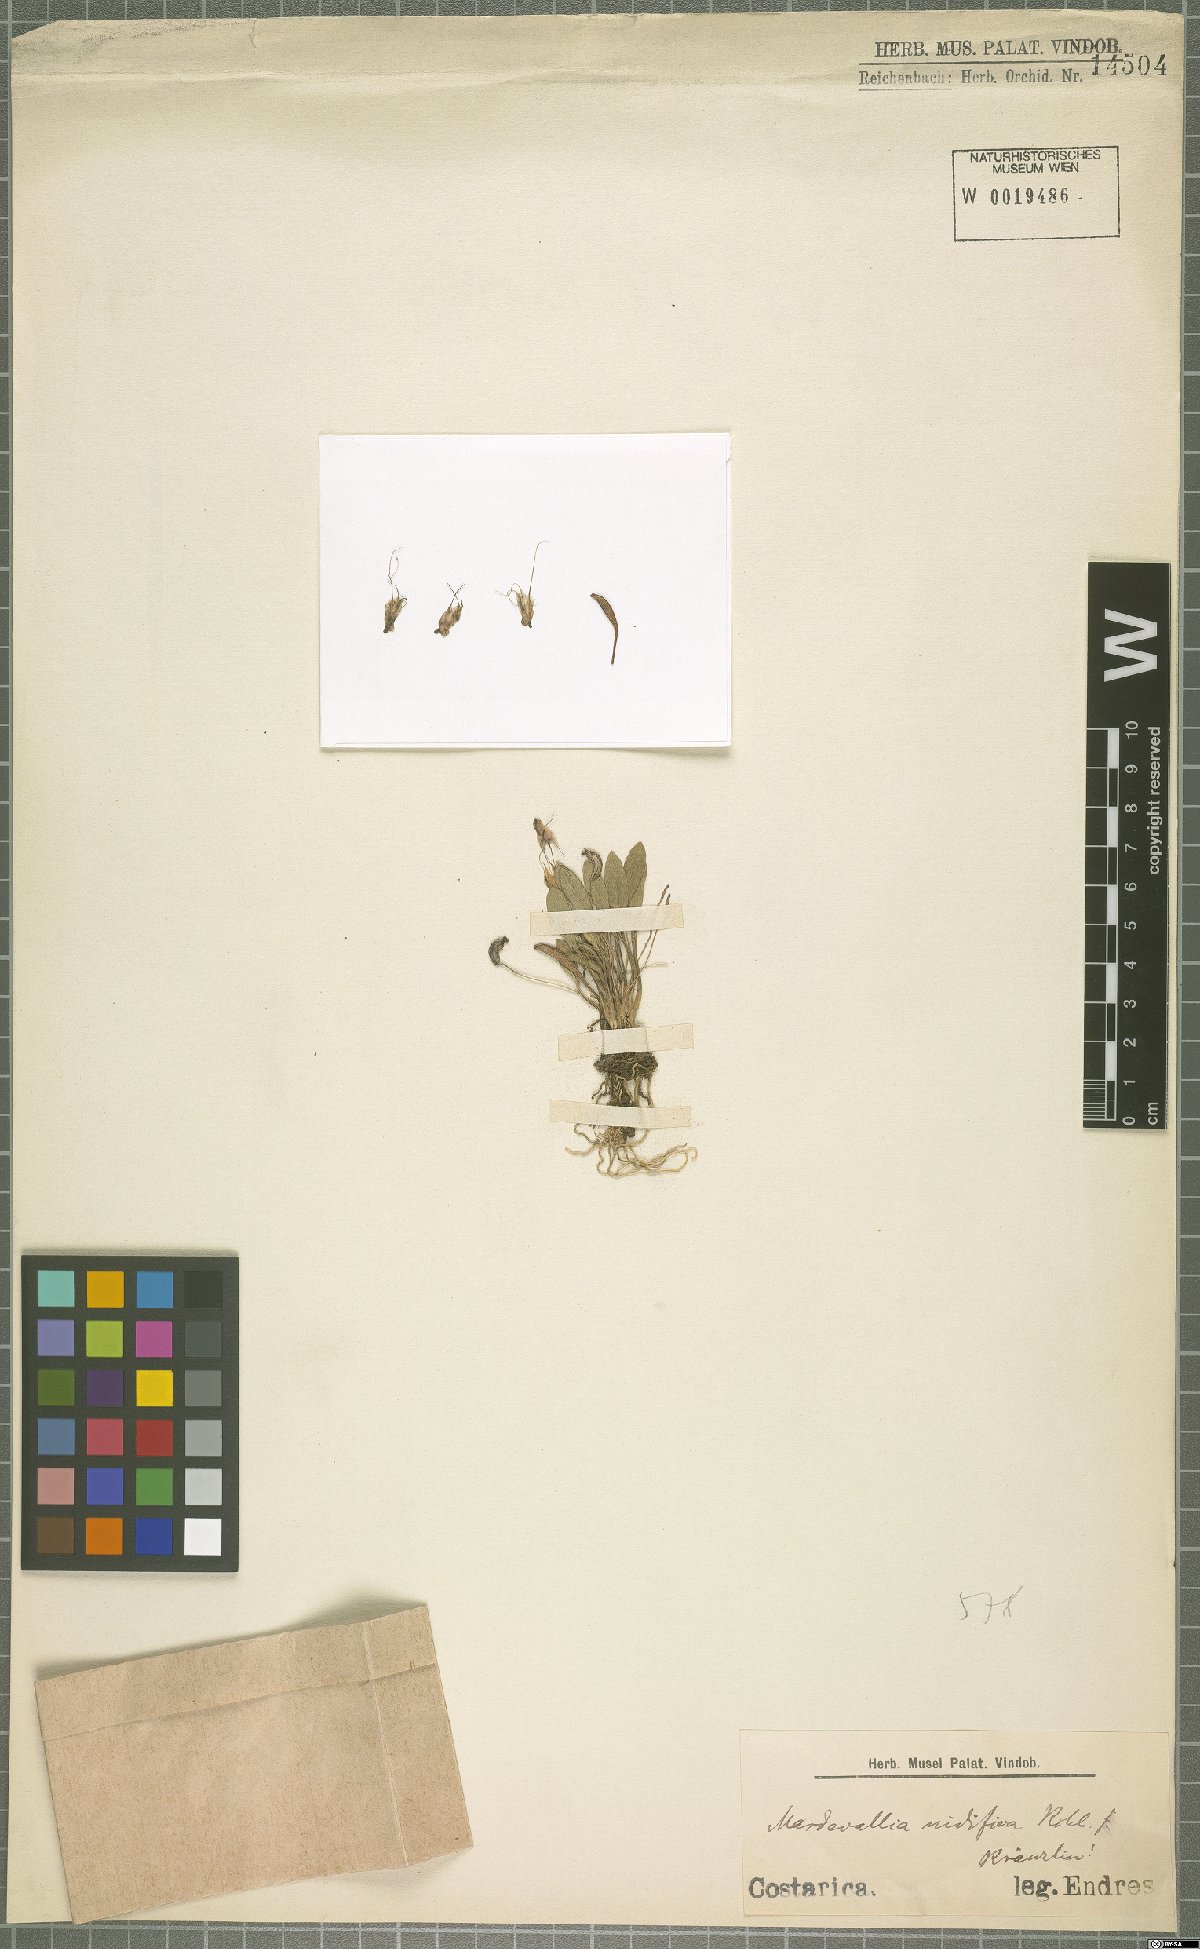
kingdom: Plantae
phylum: Tracheophyta
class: Liliopsida
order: Asparagales
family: Orchidaceae
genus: Masdevallia
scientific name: Masdevallia nidifica
